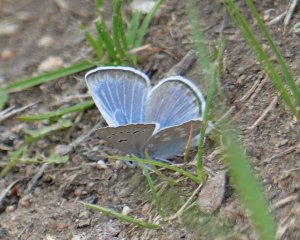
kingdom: Animalia
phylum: Arthropoda
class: Insecta
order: Lepidoptera
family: Lycaenidae
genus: Icaricia
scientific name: Icaricia icarioides
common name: Boisduval's Blue
